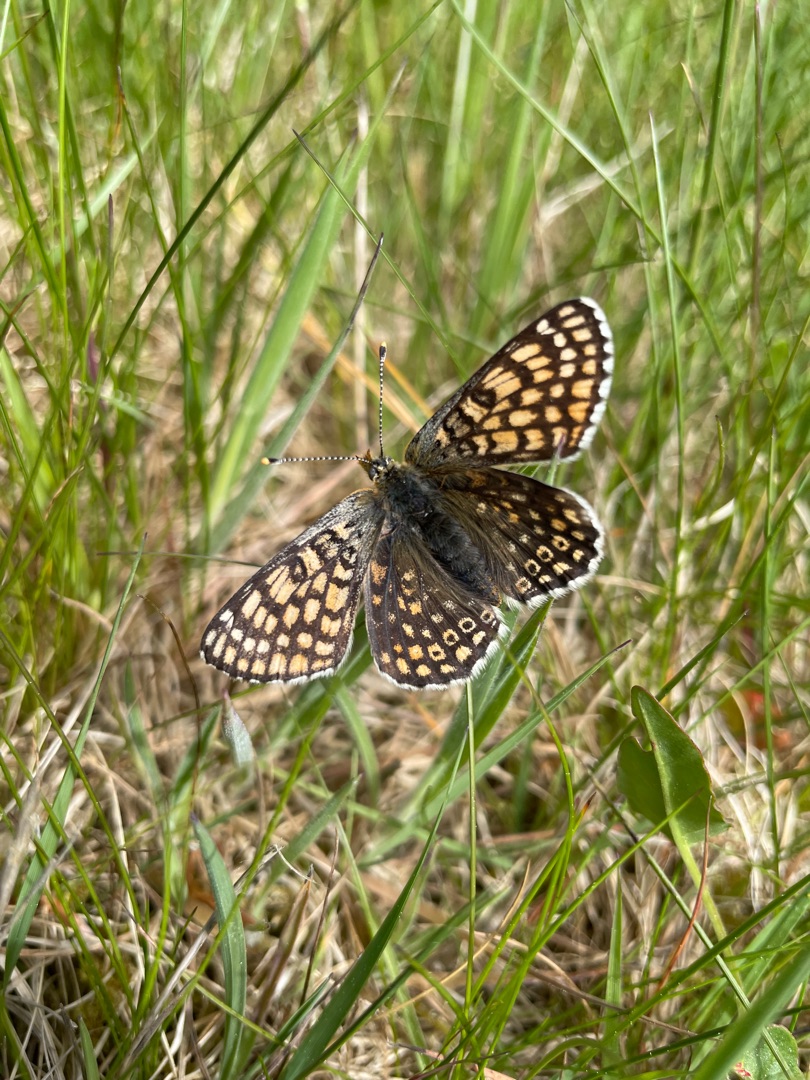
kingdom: Animalia
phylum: Arthropoda
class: Insecta
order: Lepidoptera
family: Nymphalidae
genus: Melitaea
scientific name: Melitaea cinxia
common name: Okkergul pletvinge
